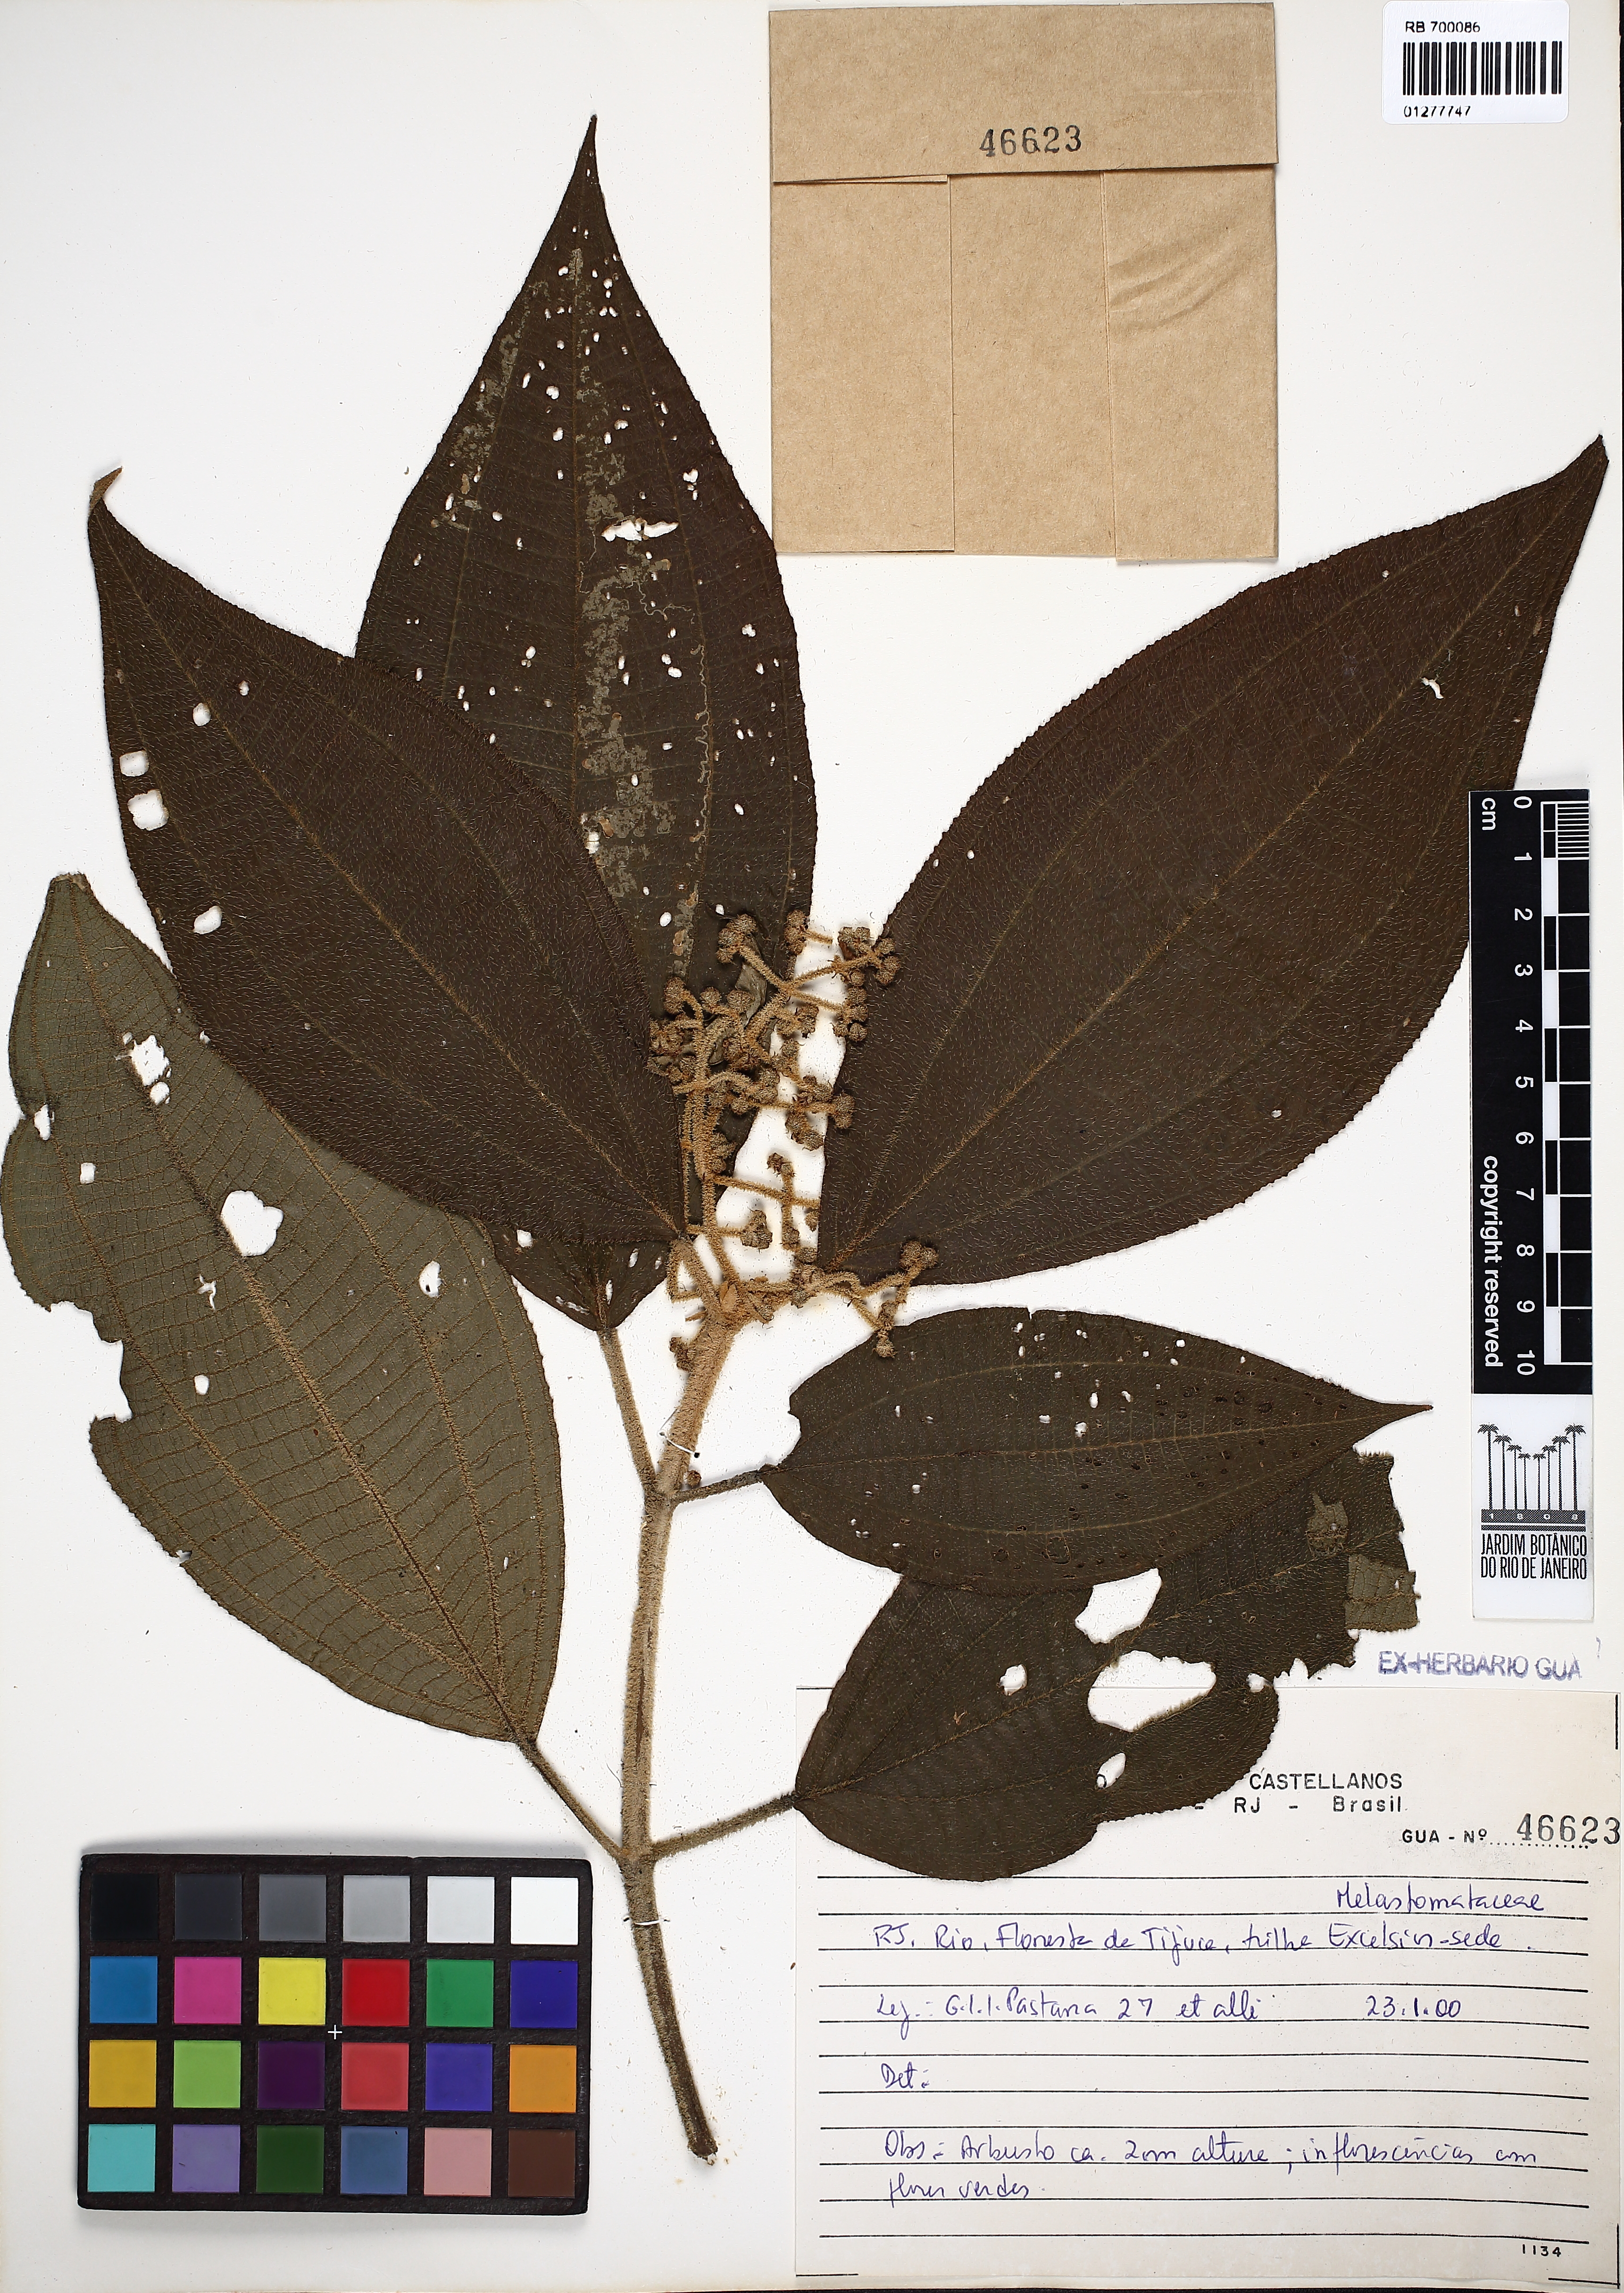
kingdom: Plantae
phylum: Tracheophyta
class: Magnoliopsida
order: Myrtales
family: Melastomataceae
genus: Miconia
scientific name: Miconia
